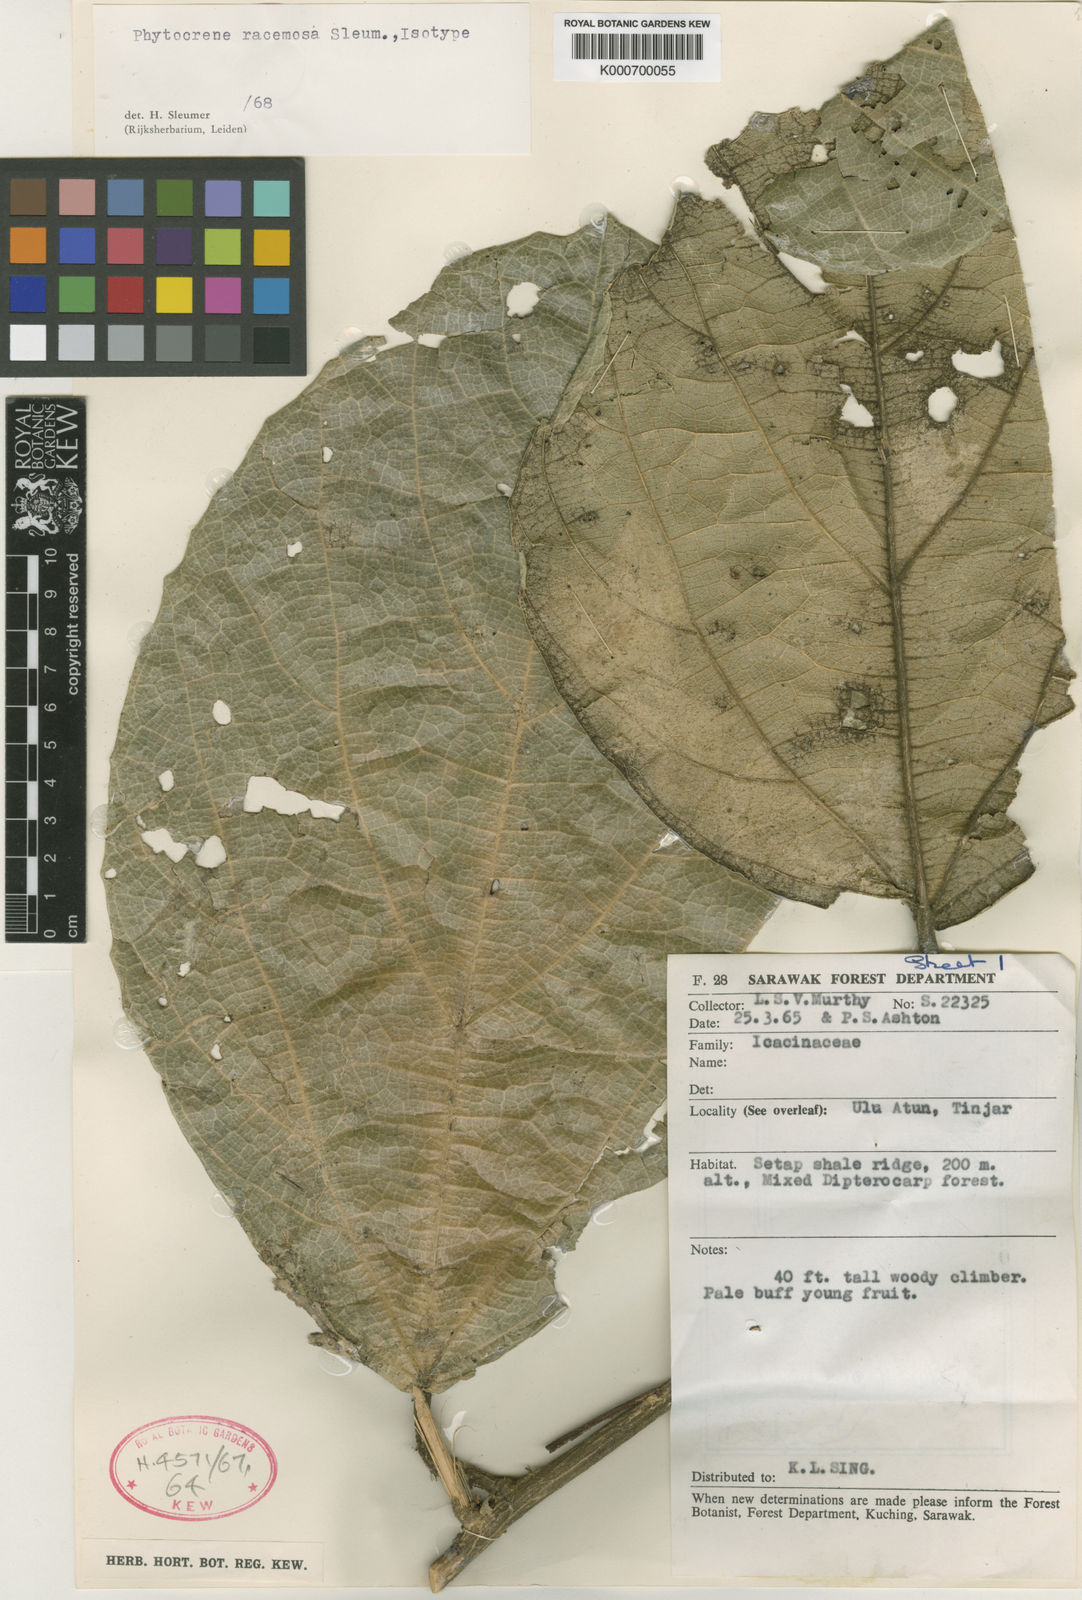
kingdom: Plantae
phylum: Tracheophyta
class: Magnoliopsida
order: Icacinales
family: Icacinaceae
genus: Phytocrene
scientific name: Phytocrene racemosa
